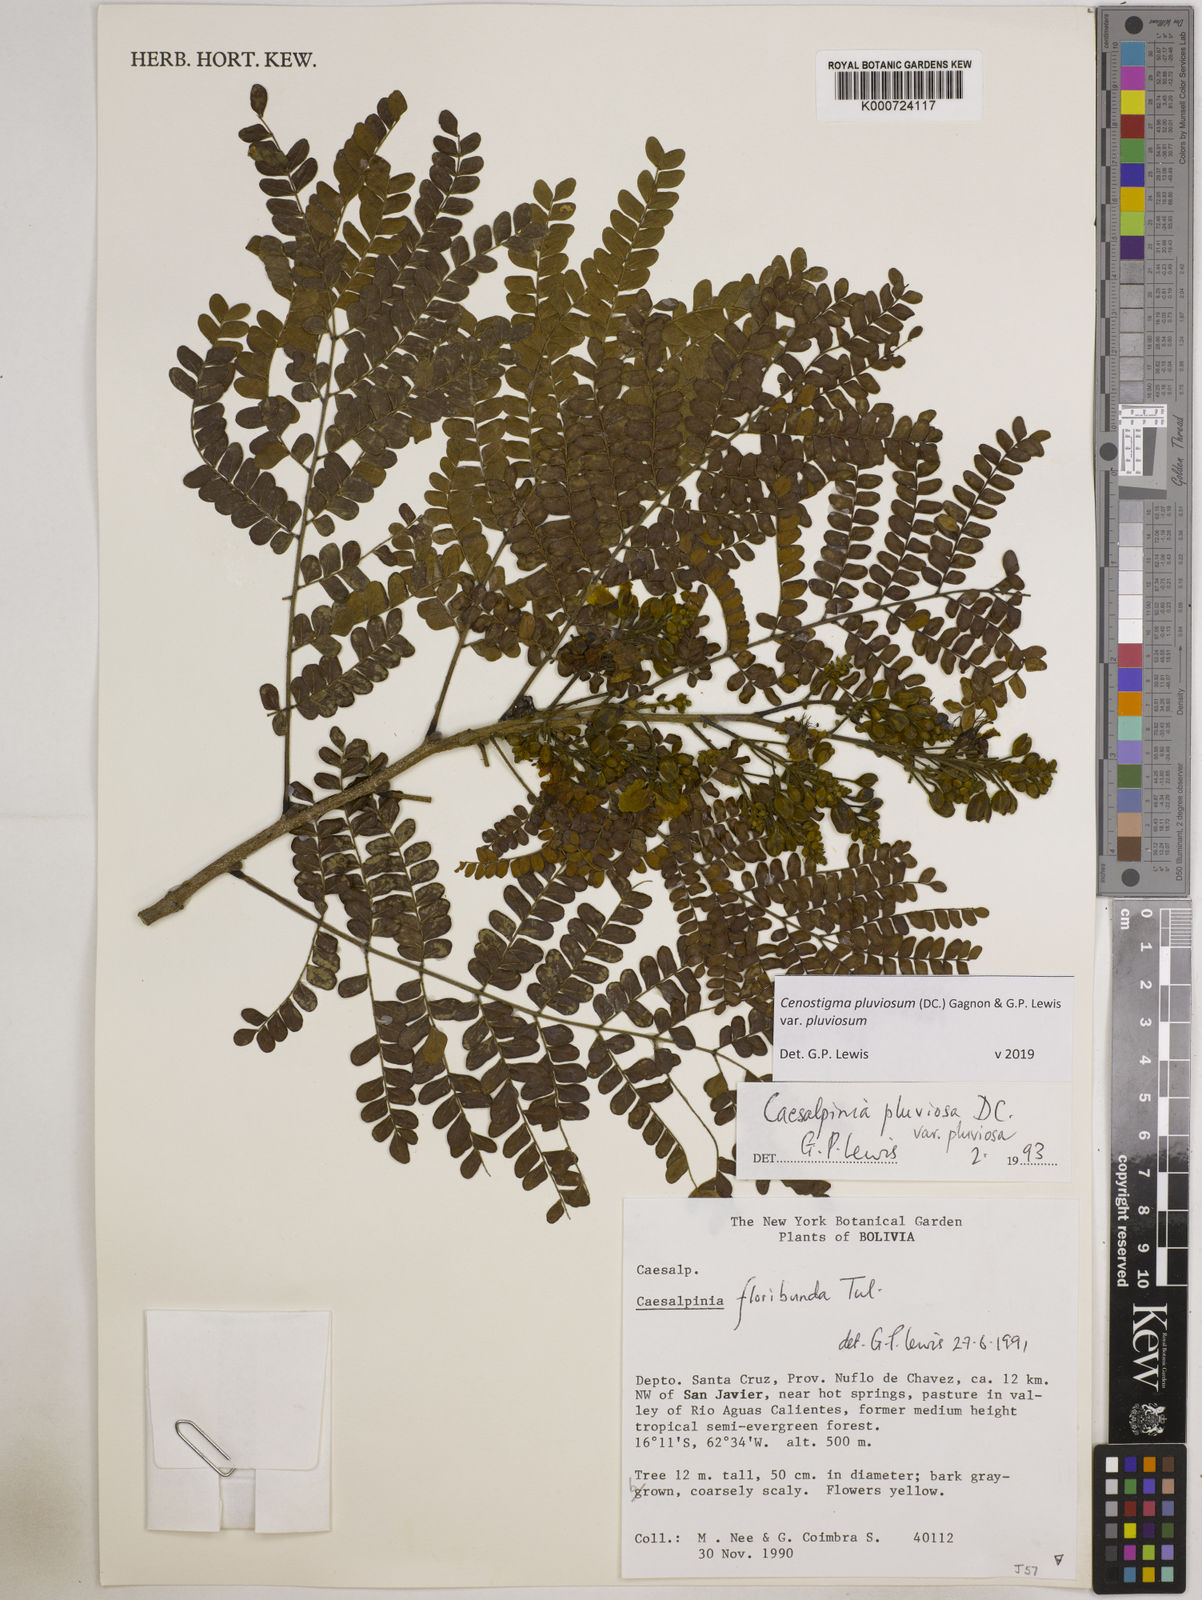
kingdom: Plantae
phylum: Tracheophyta
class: Magnoliopsida
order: Fabales
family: Fabaceae
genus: Cenostigma
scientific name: Cenostigma pluviosum
